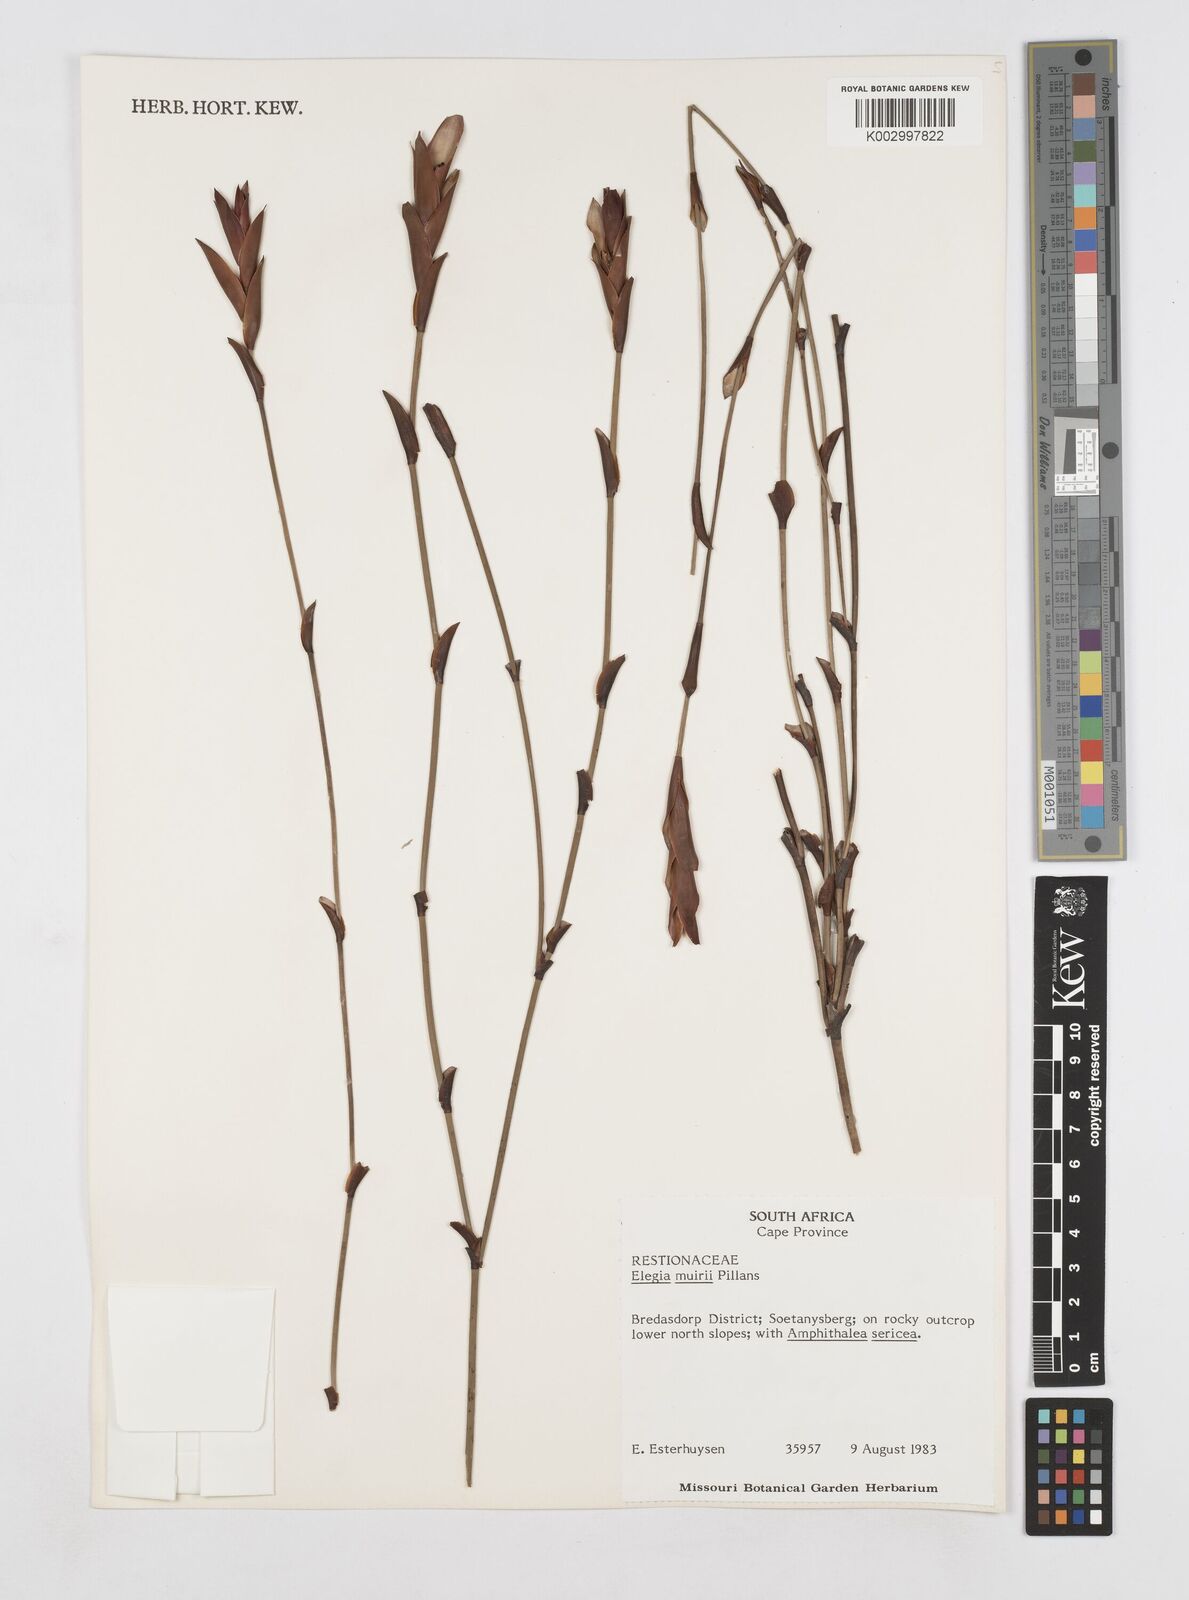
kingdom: Plantae
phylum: Tracheophyta
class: Liliopsida
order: Poales
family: Restionaceae
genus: Elegia
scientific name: Elegia muirii
